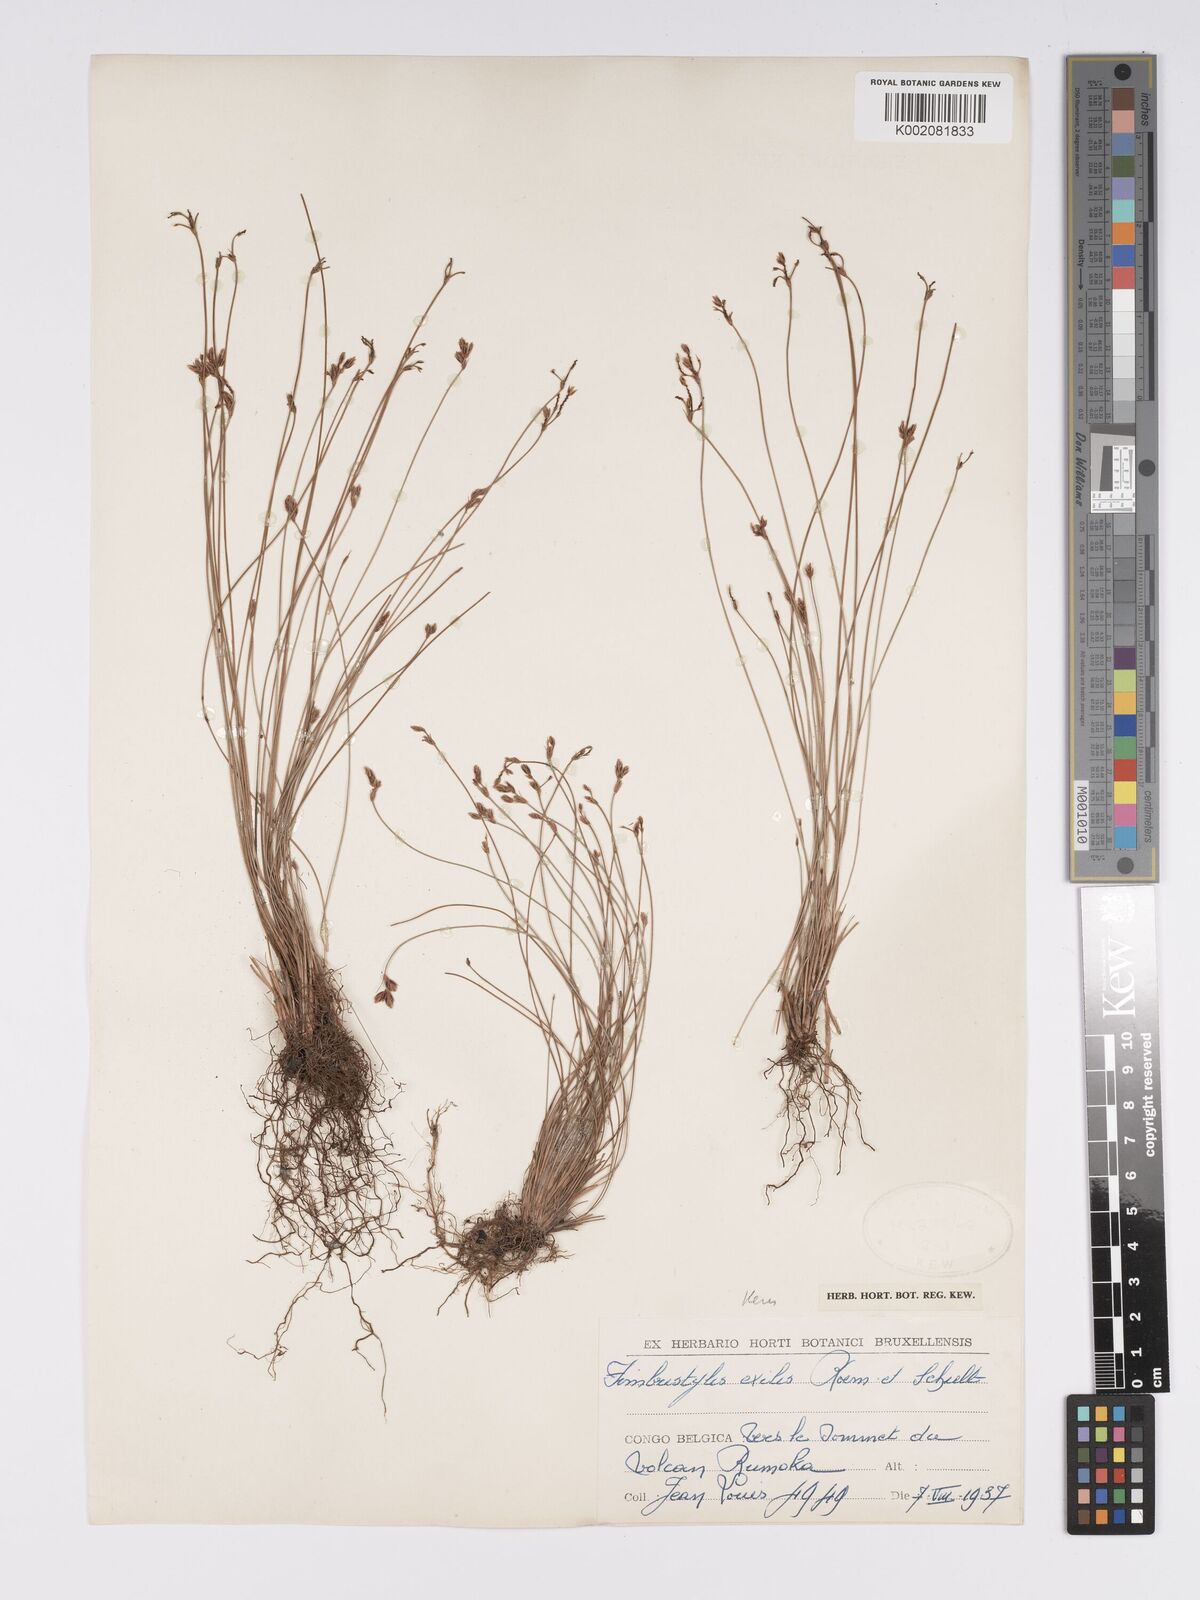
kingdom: Plantae
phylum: Tracheophyta
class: Liliopsida
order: Poales
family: Cyperaceae
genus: Bulbostylis
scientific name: Bulbostylis hispidula
